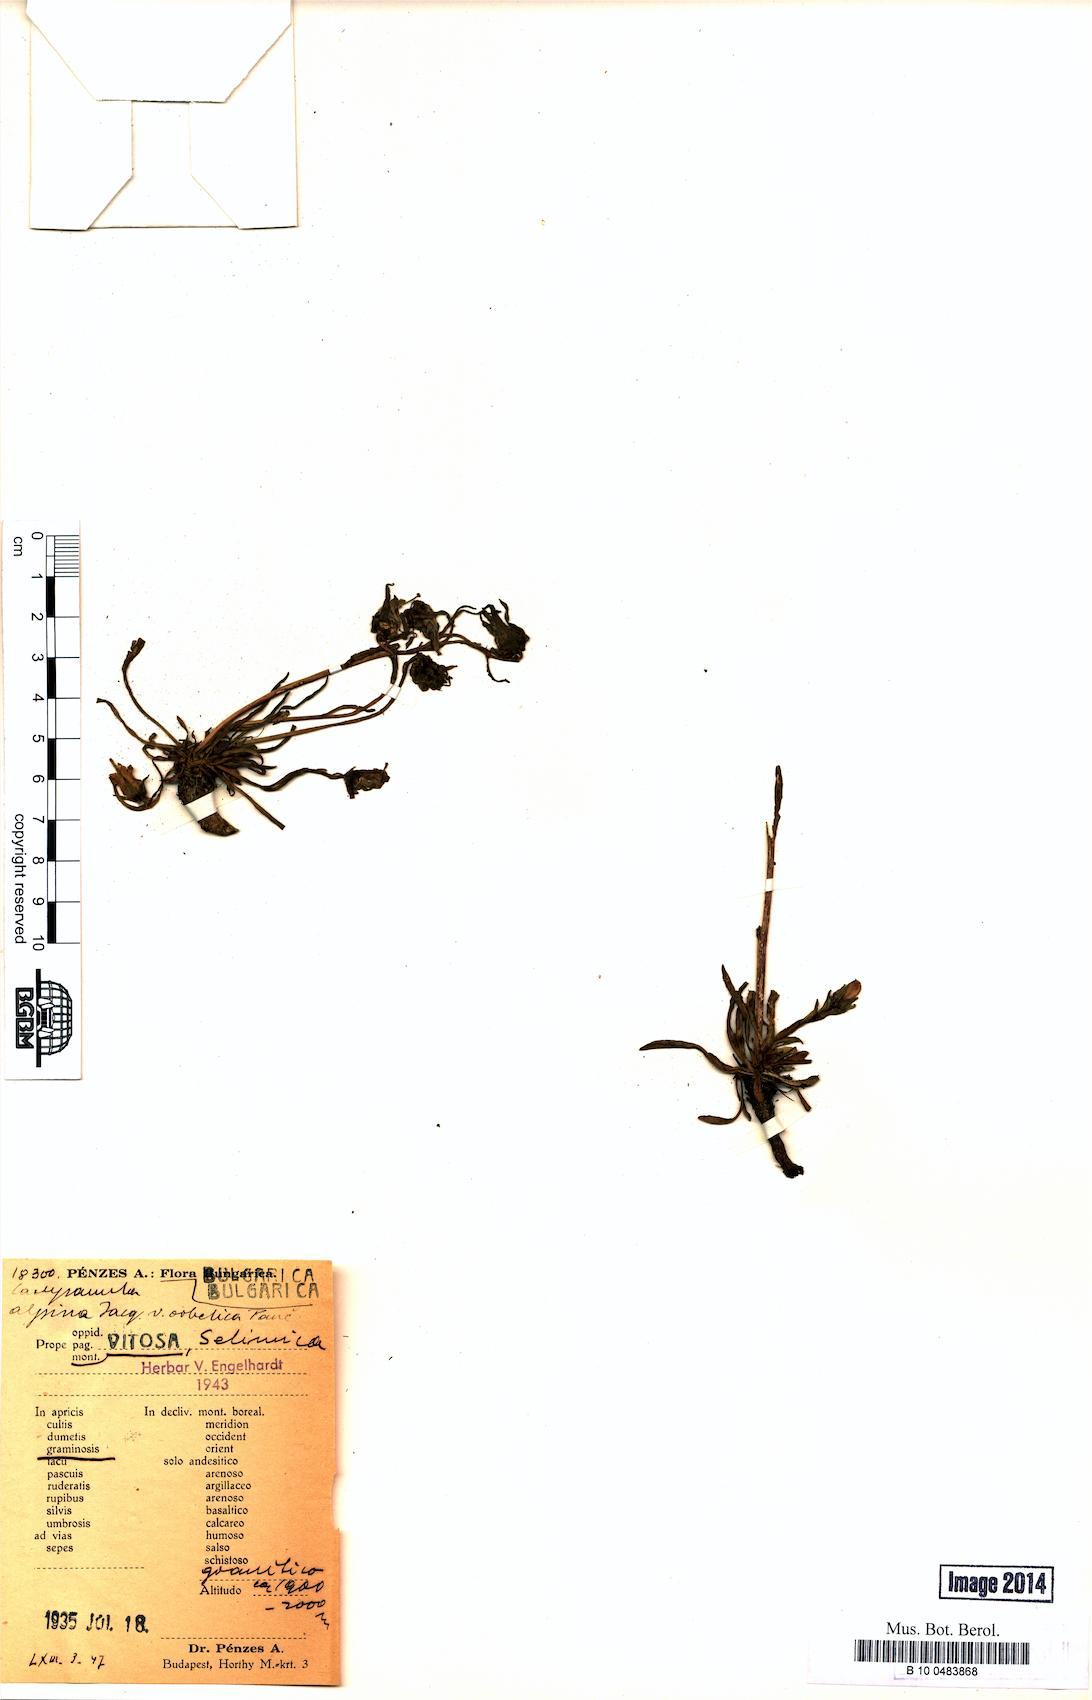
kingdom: Plantae
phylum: Tracheophyta
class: Magnoliopsida
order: Asterales
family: Campanulaceae
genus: Campanula
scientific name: Campanula orbelica
